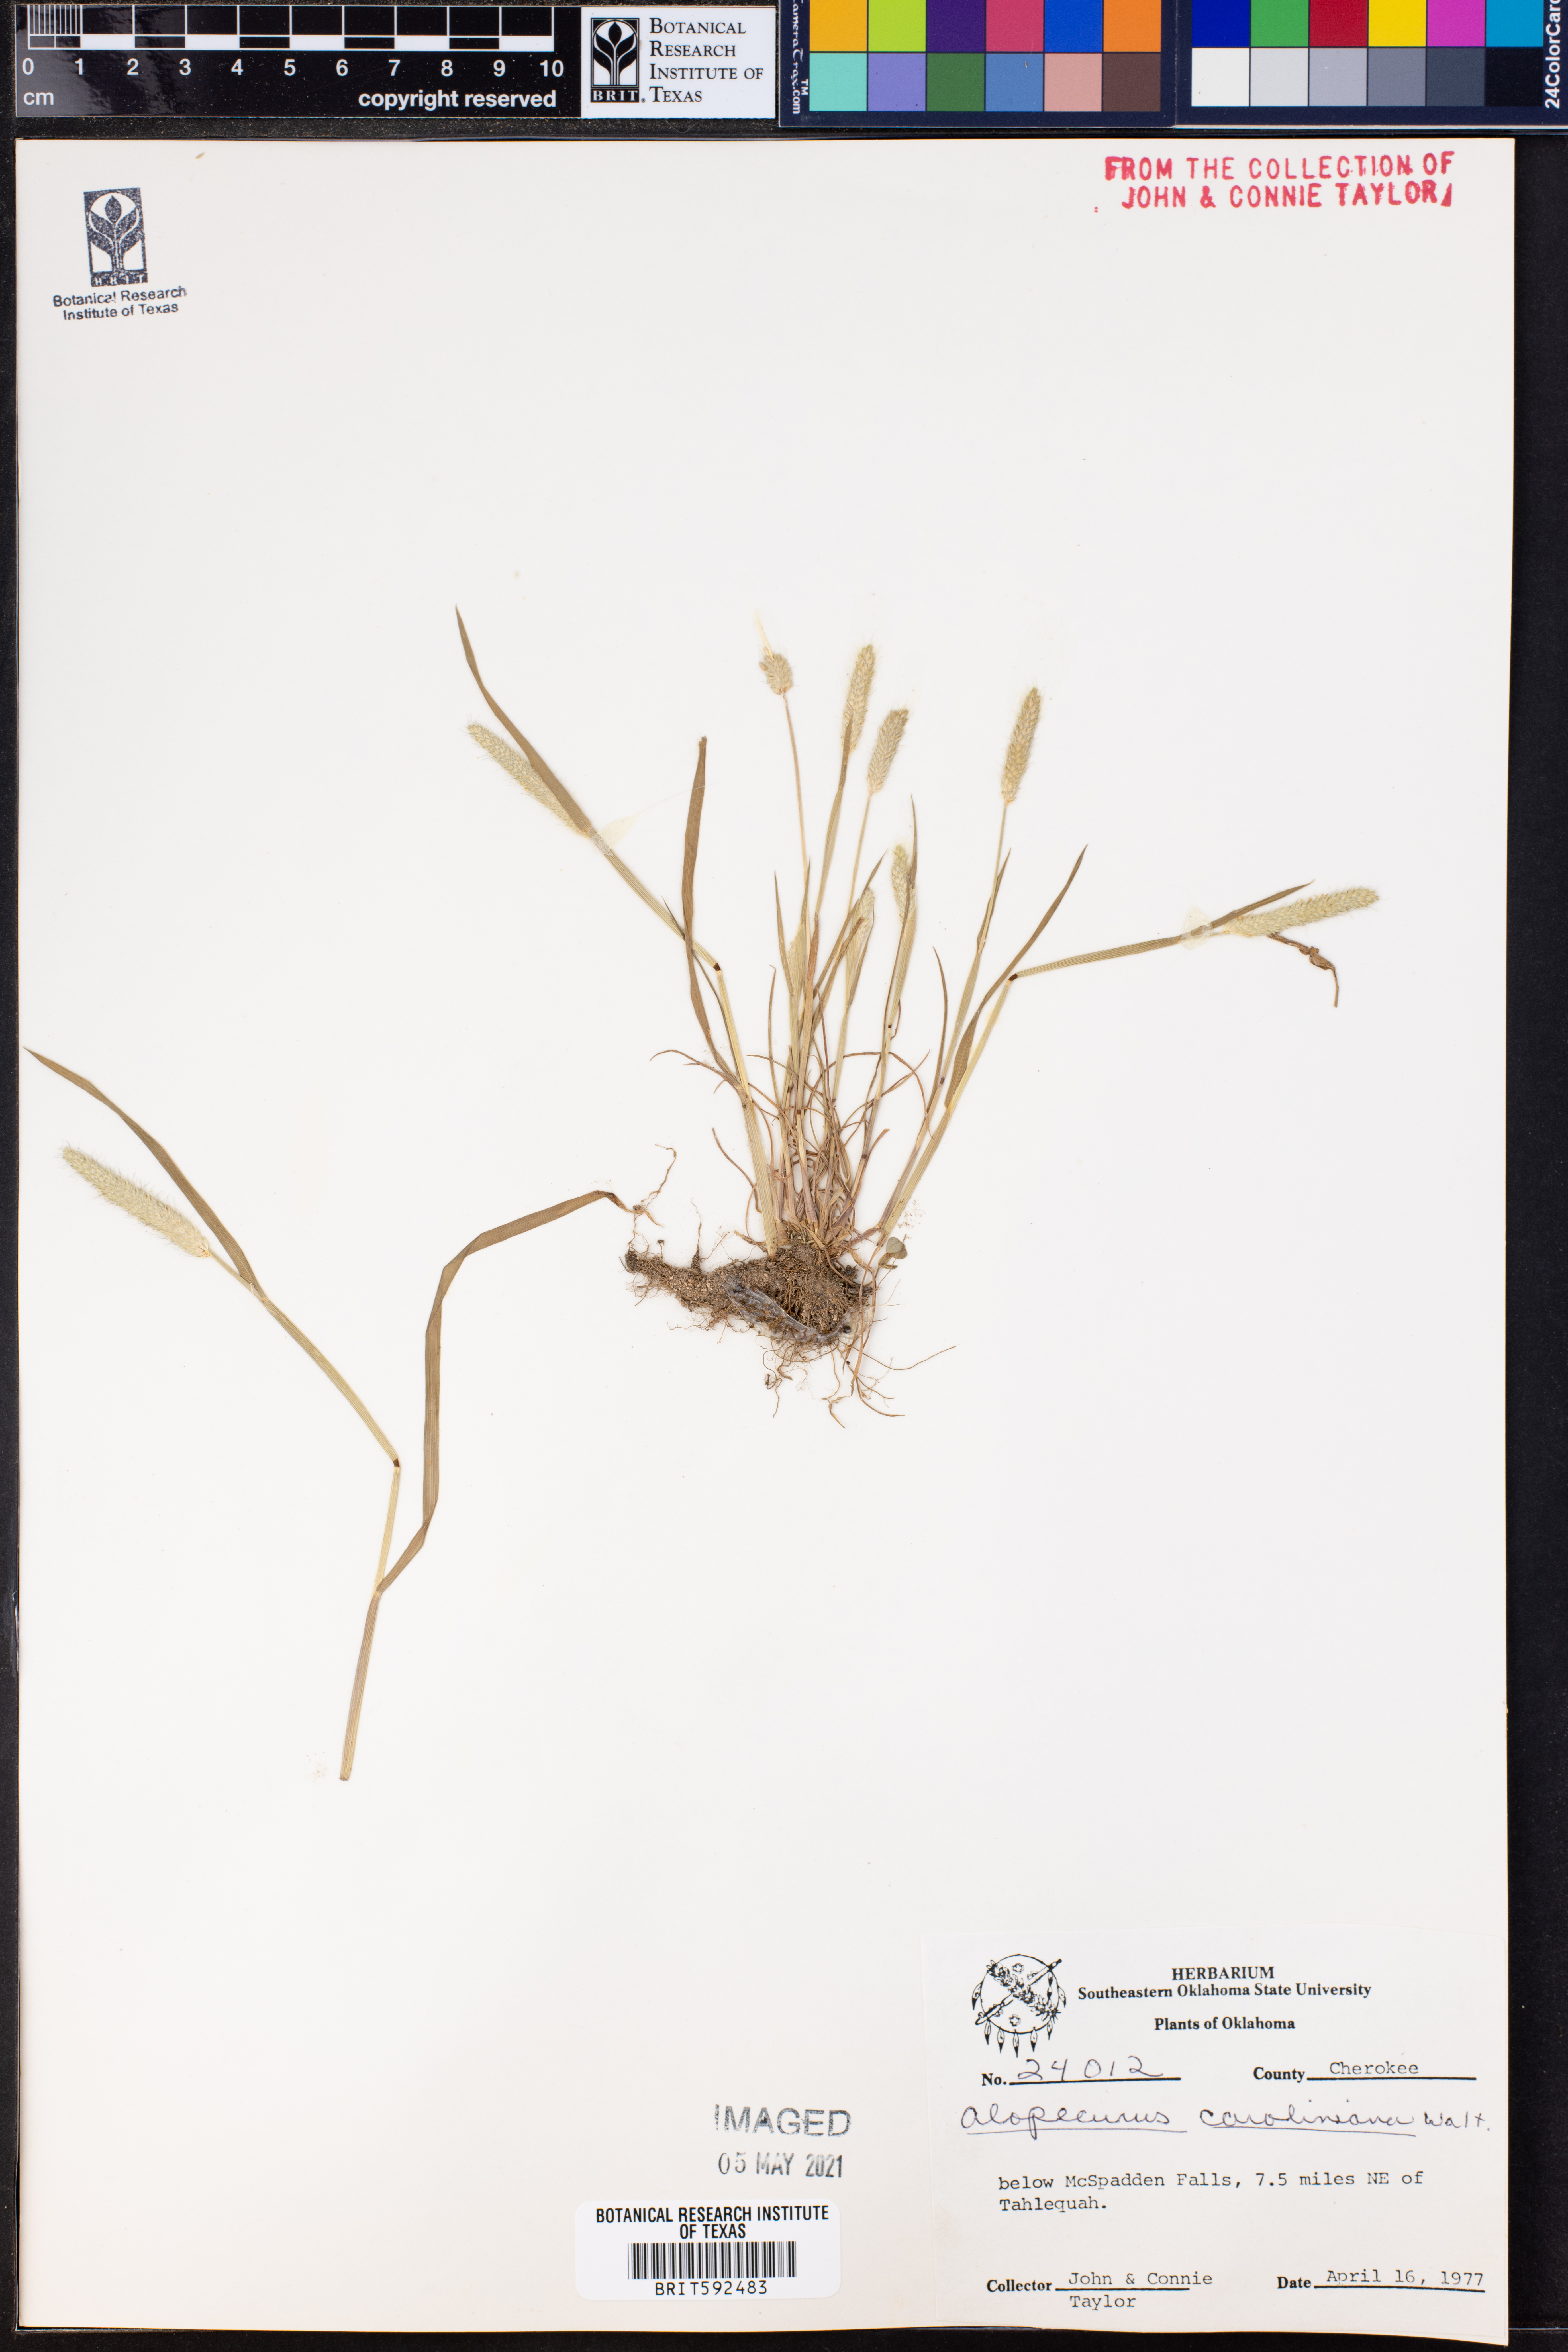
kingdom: Plantae
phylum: Tracheophyta
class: Liliopsida
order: Poales
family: Poaceae
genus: Alopecurus
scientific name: Alopecurus carolinianus
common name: Tufted foxtail
